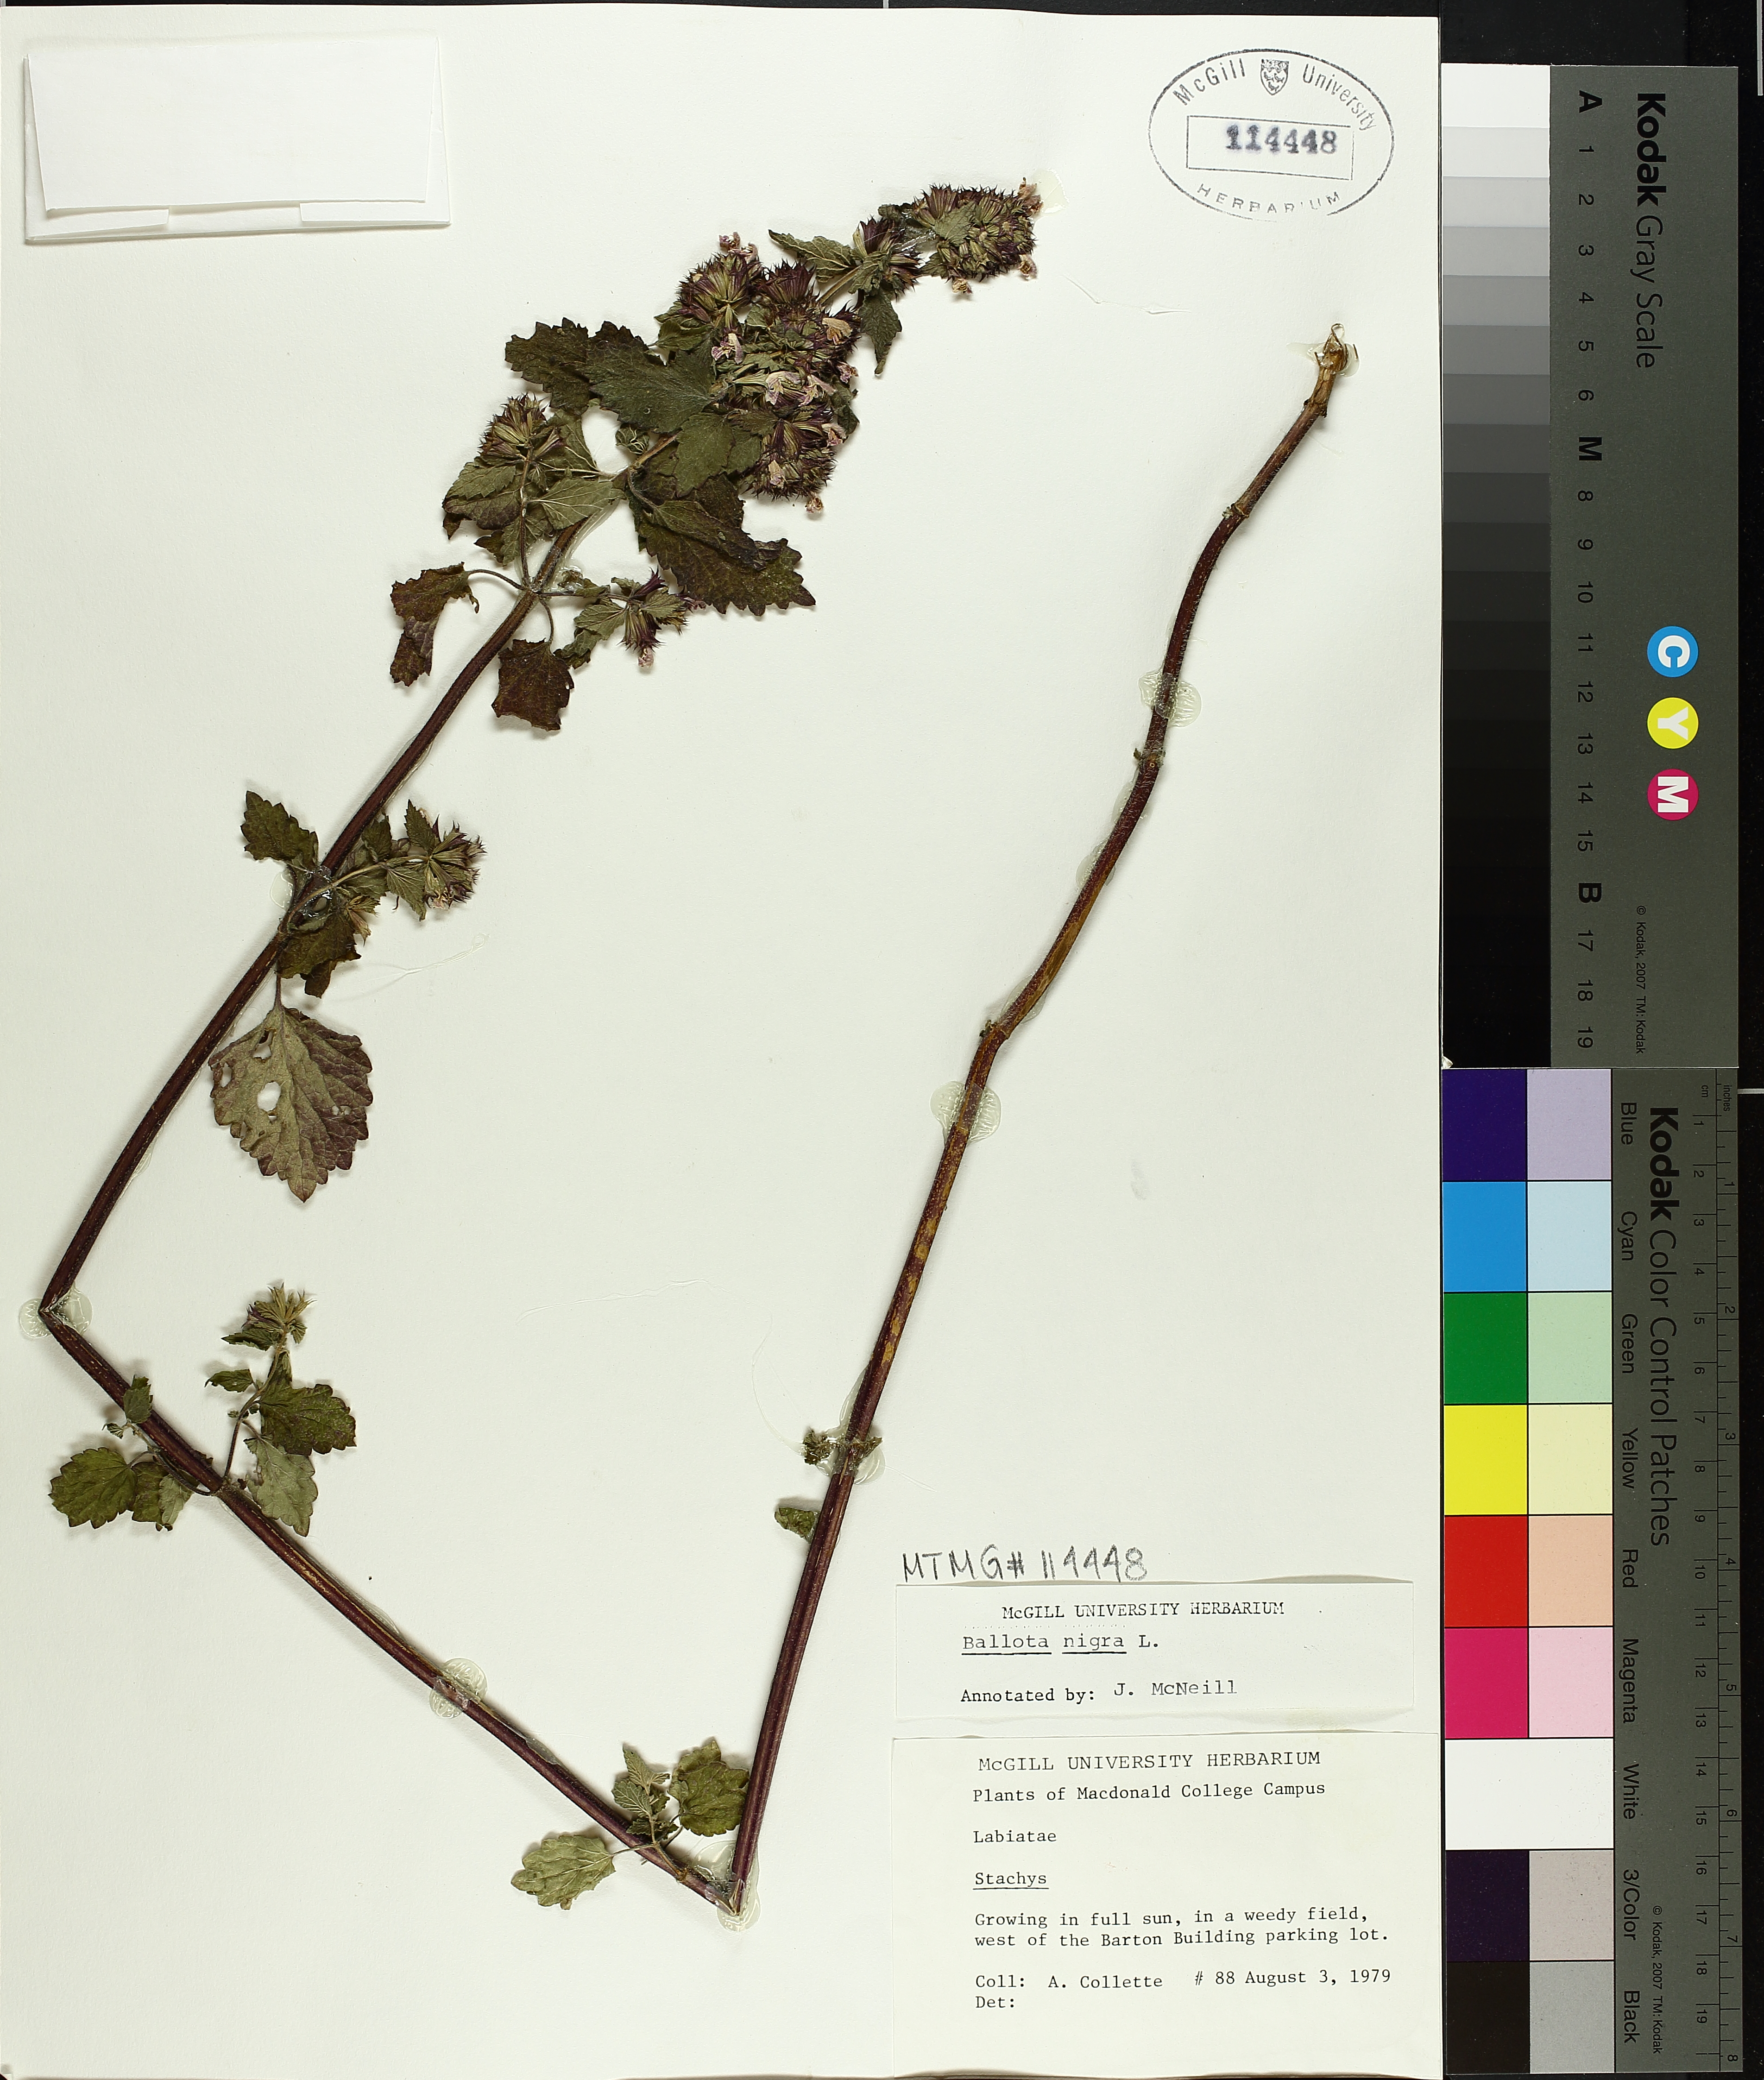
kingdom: Plantae
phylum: Tracheophyta
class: Magnoliopsida
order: Lamiales
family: Lamiaceae
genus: Ballota
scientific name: Ballota nigra
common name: Black horehound
